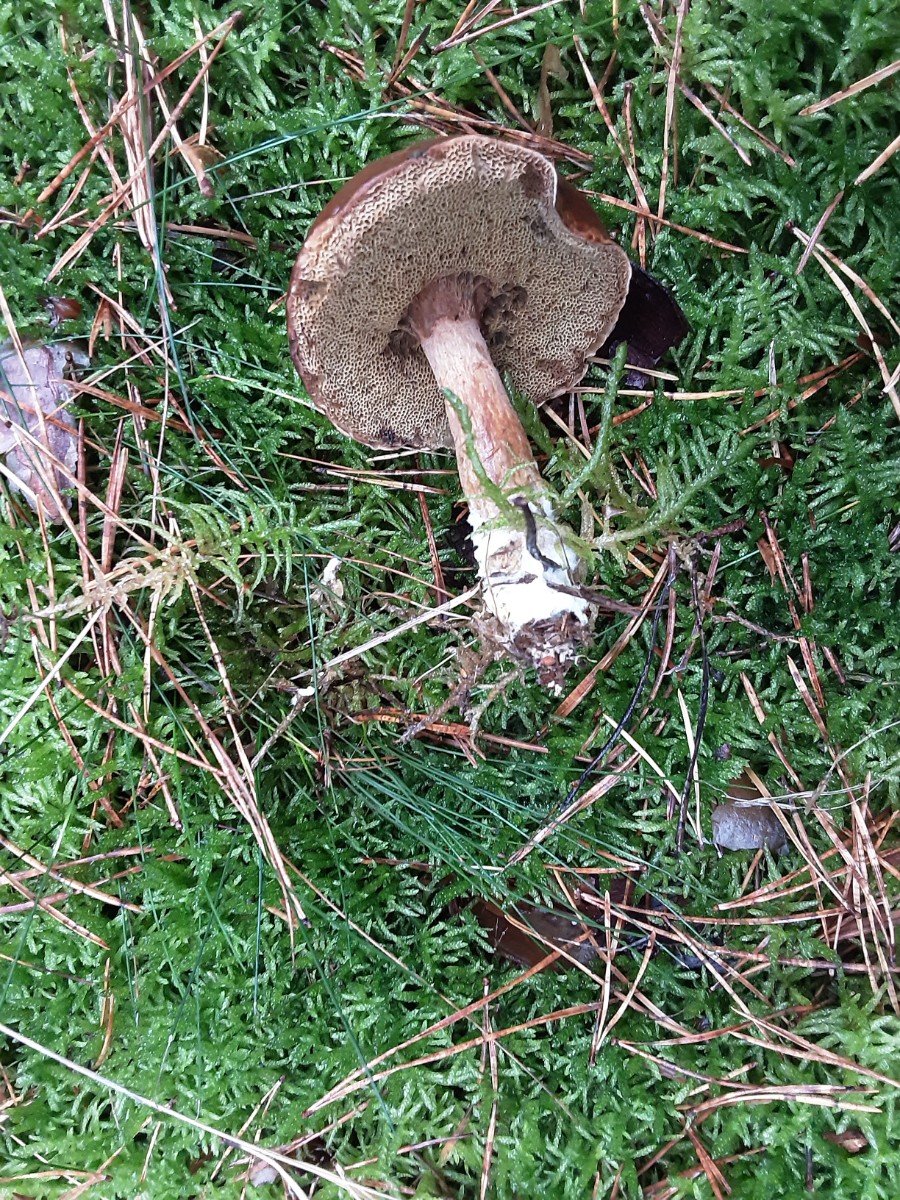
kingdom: Fungi
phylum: Basidiomycota
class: Agaricomycetes
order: Boletales
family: Boletaceae
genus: Imleria
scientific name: Imleria badia
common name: brunstokket rørhat
